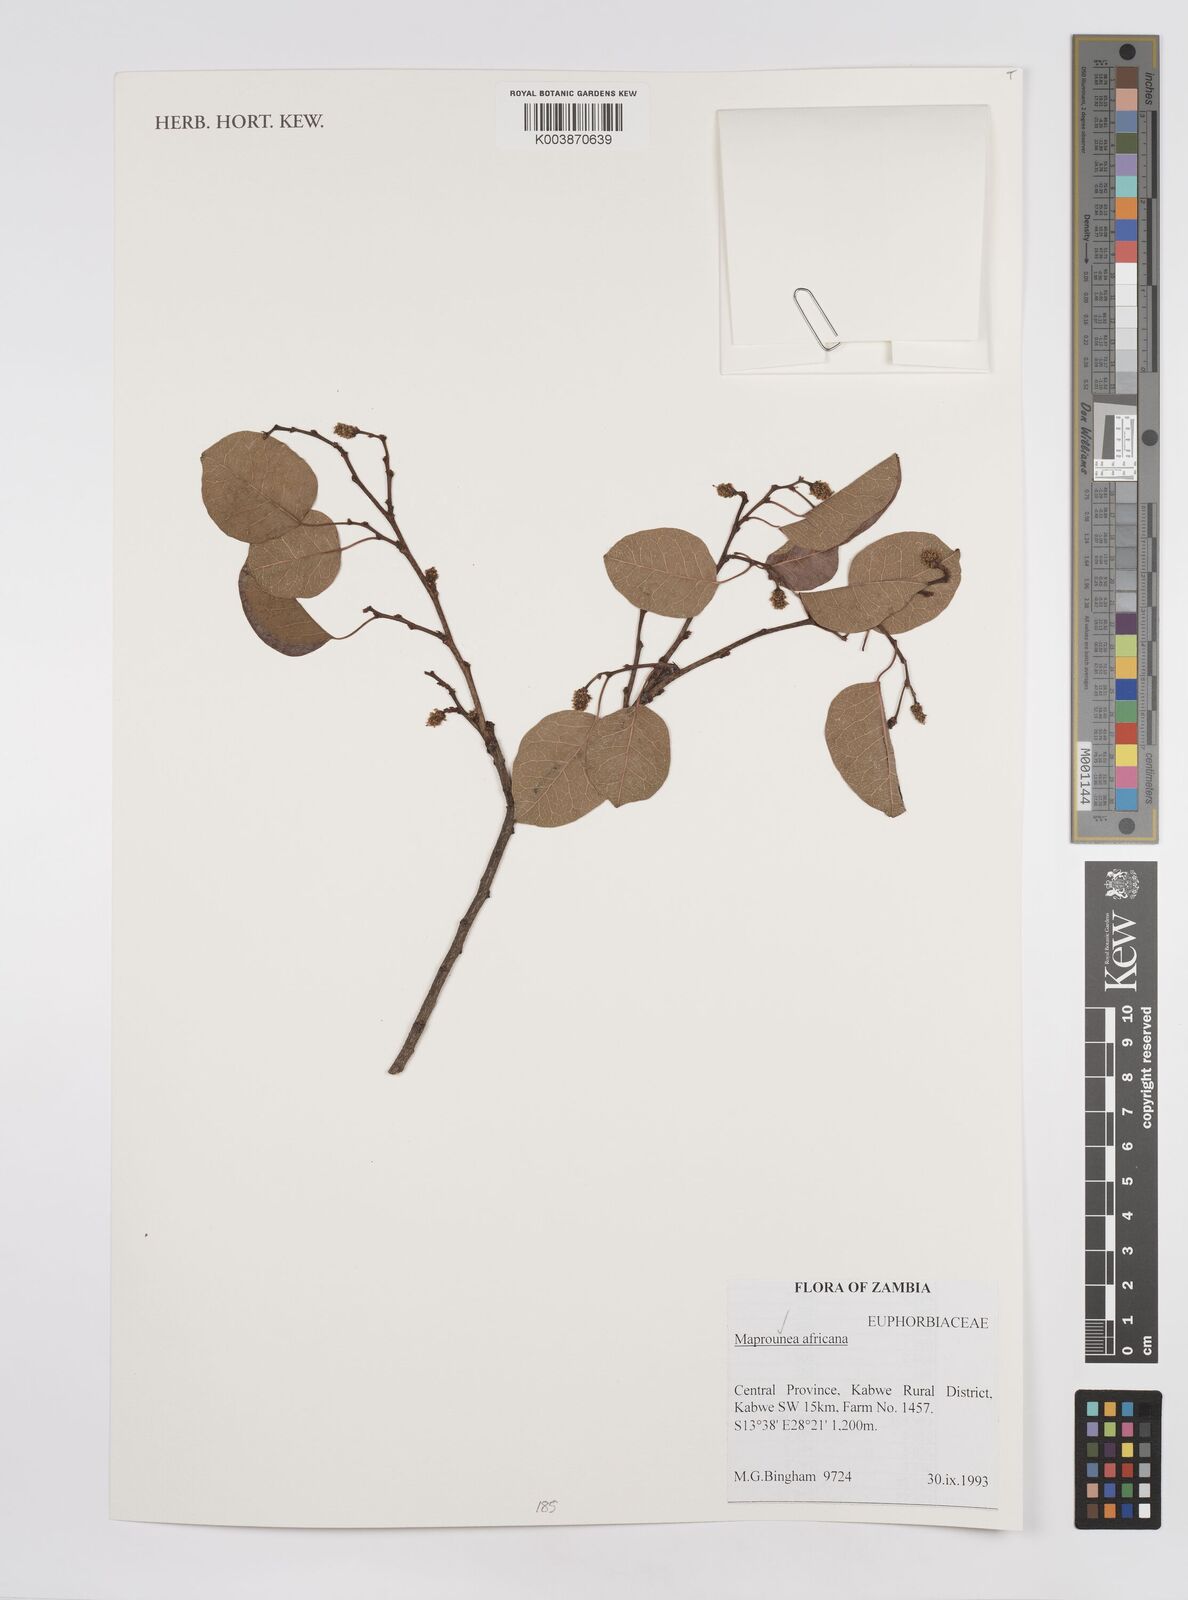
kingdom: Plantae
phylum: Tracheophyta
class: Magnoliopsida
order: Malpighiales
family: Euphorbiaceae
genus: Maprounea
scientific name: Maprounea africana
